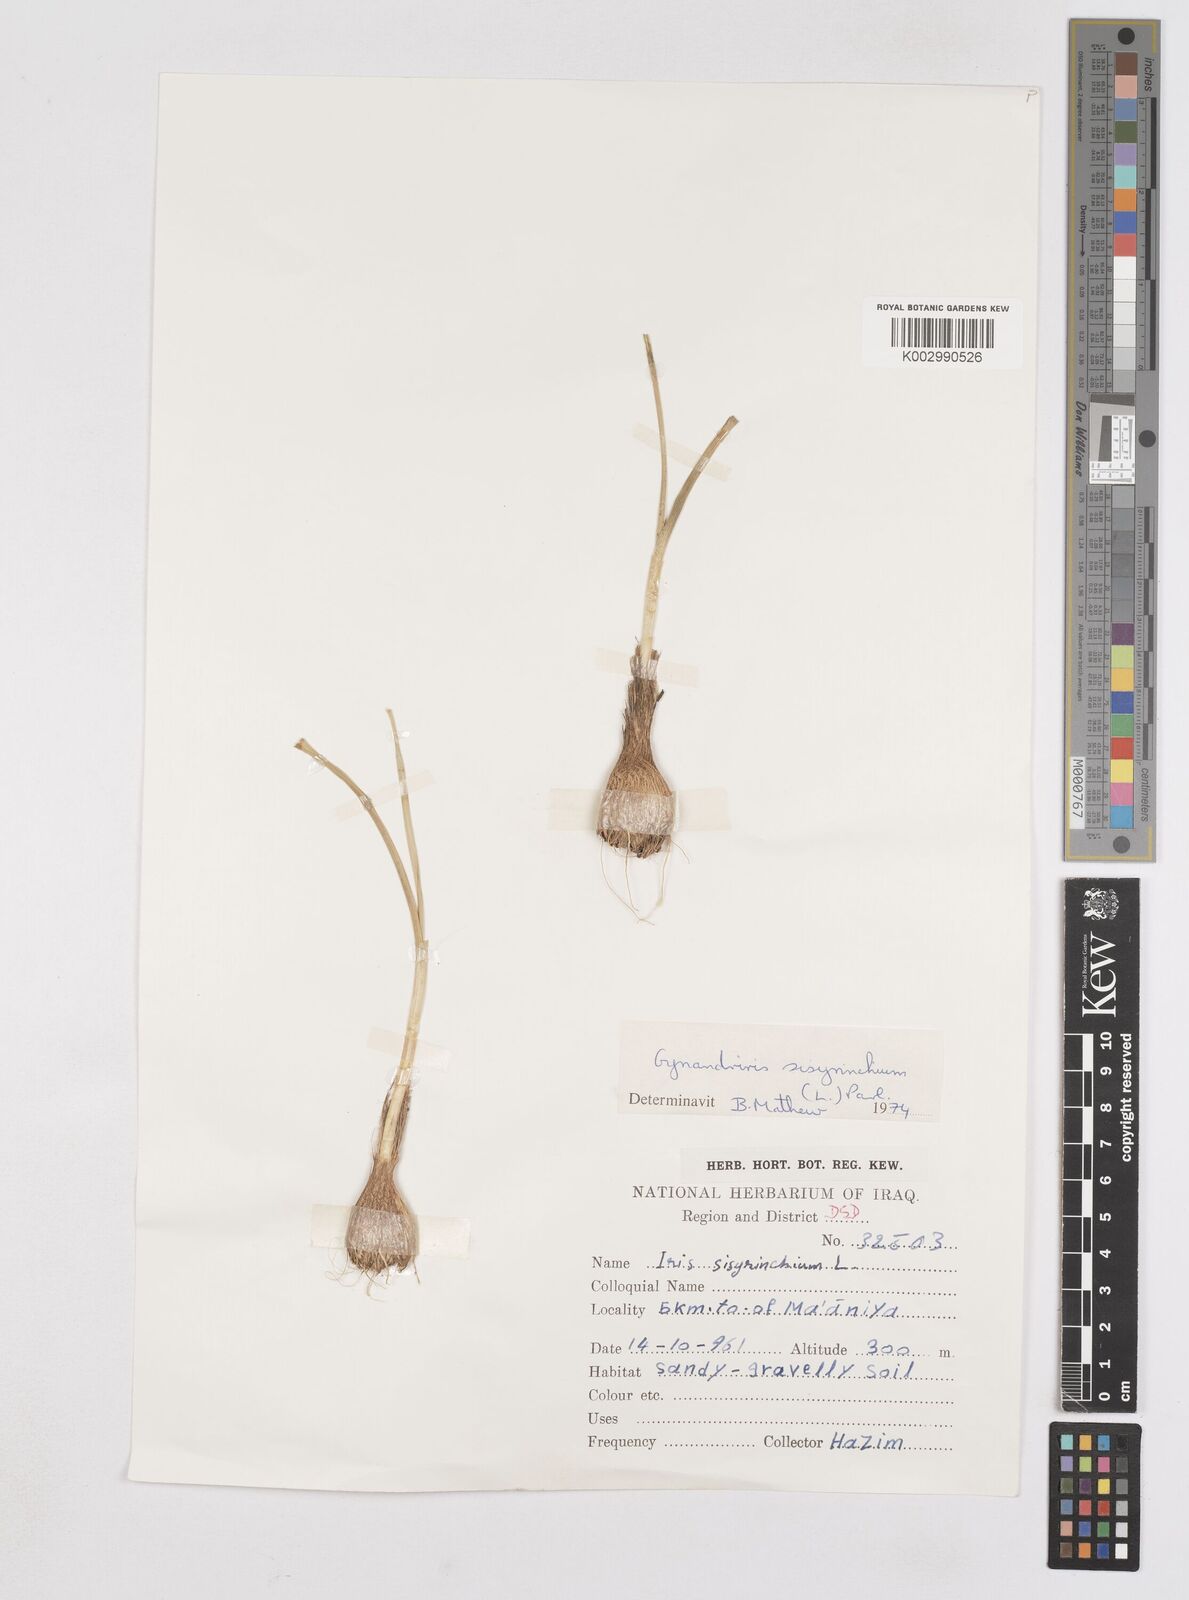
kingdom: Plantae
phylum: Tracheophyta
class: Liliopsida
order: Asparagales
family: Iridaceae
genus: Moraea
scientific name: Moraea sisyrinchium
